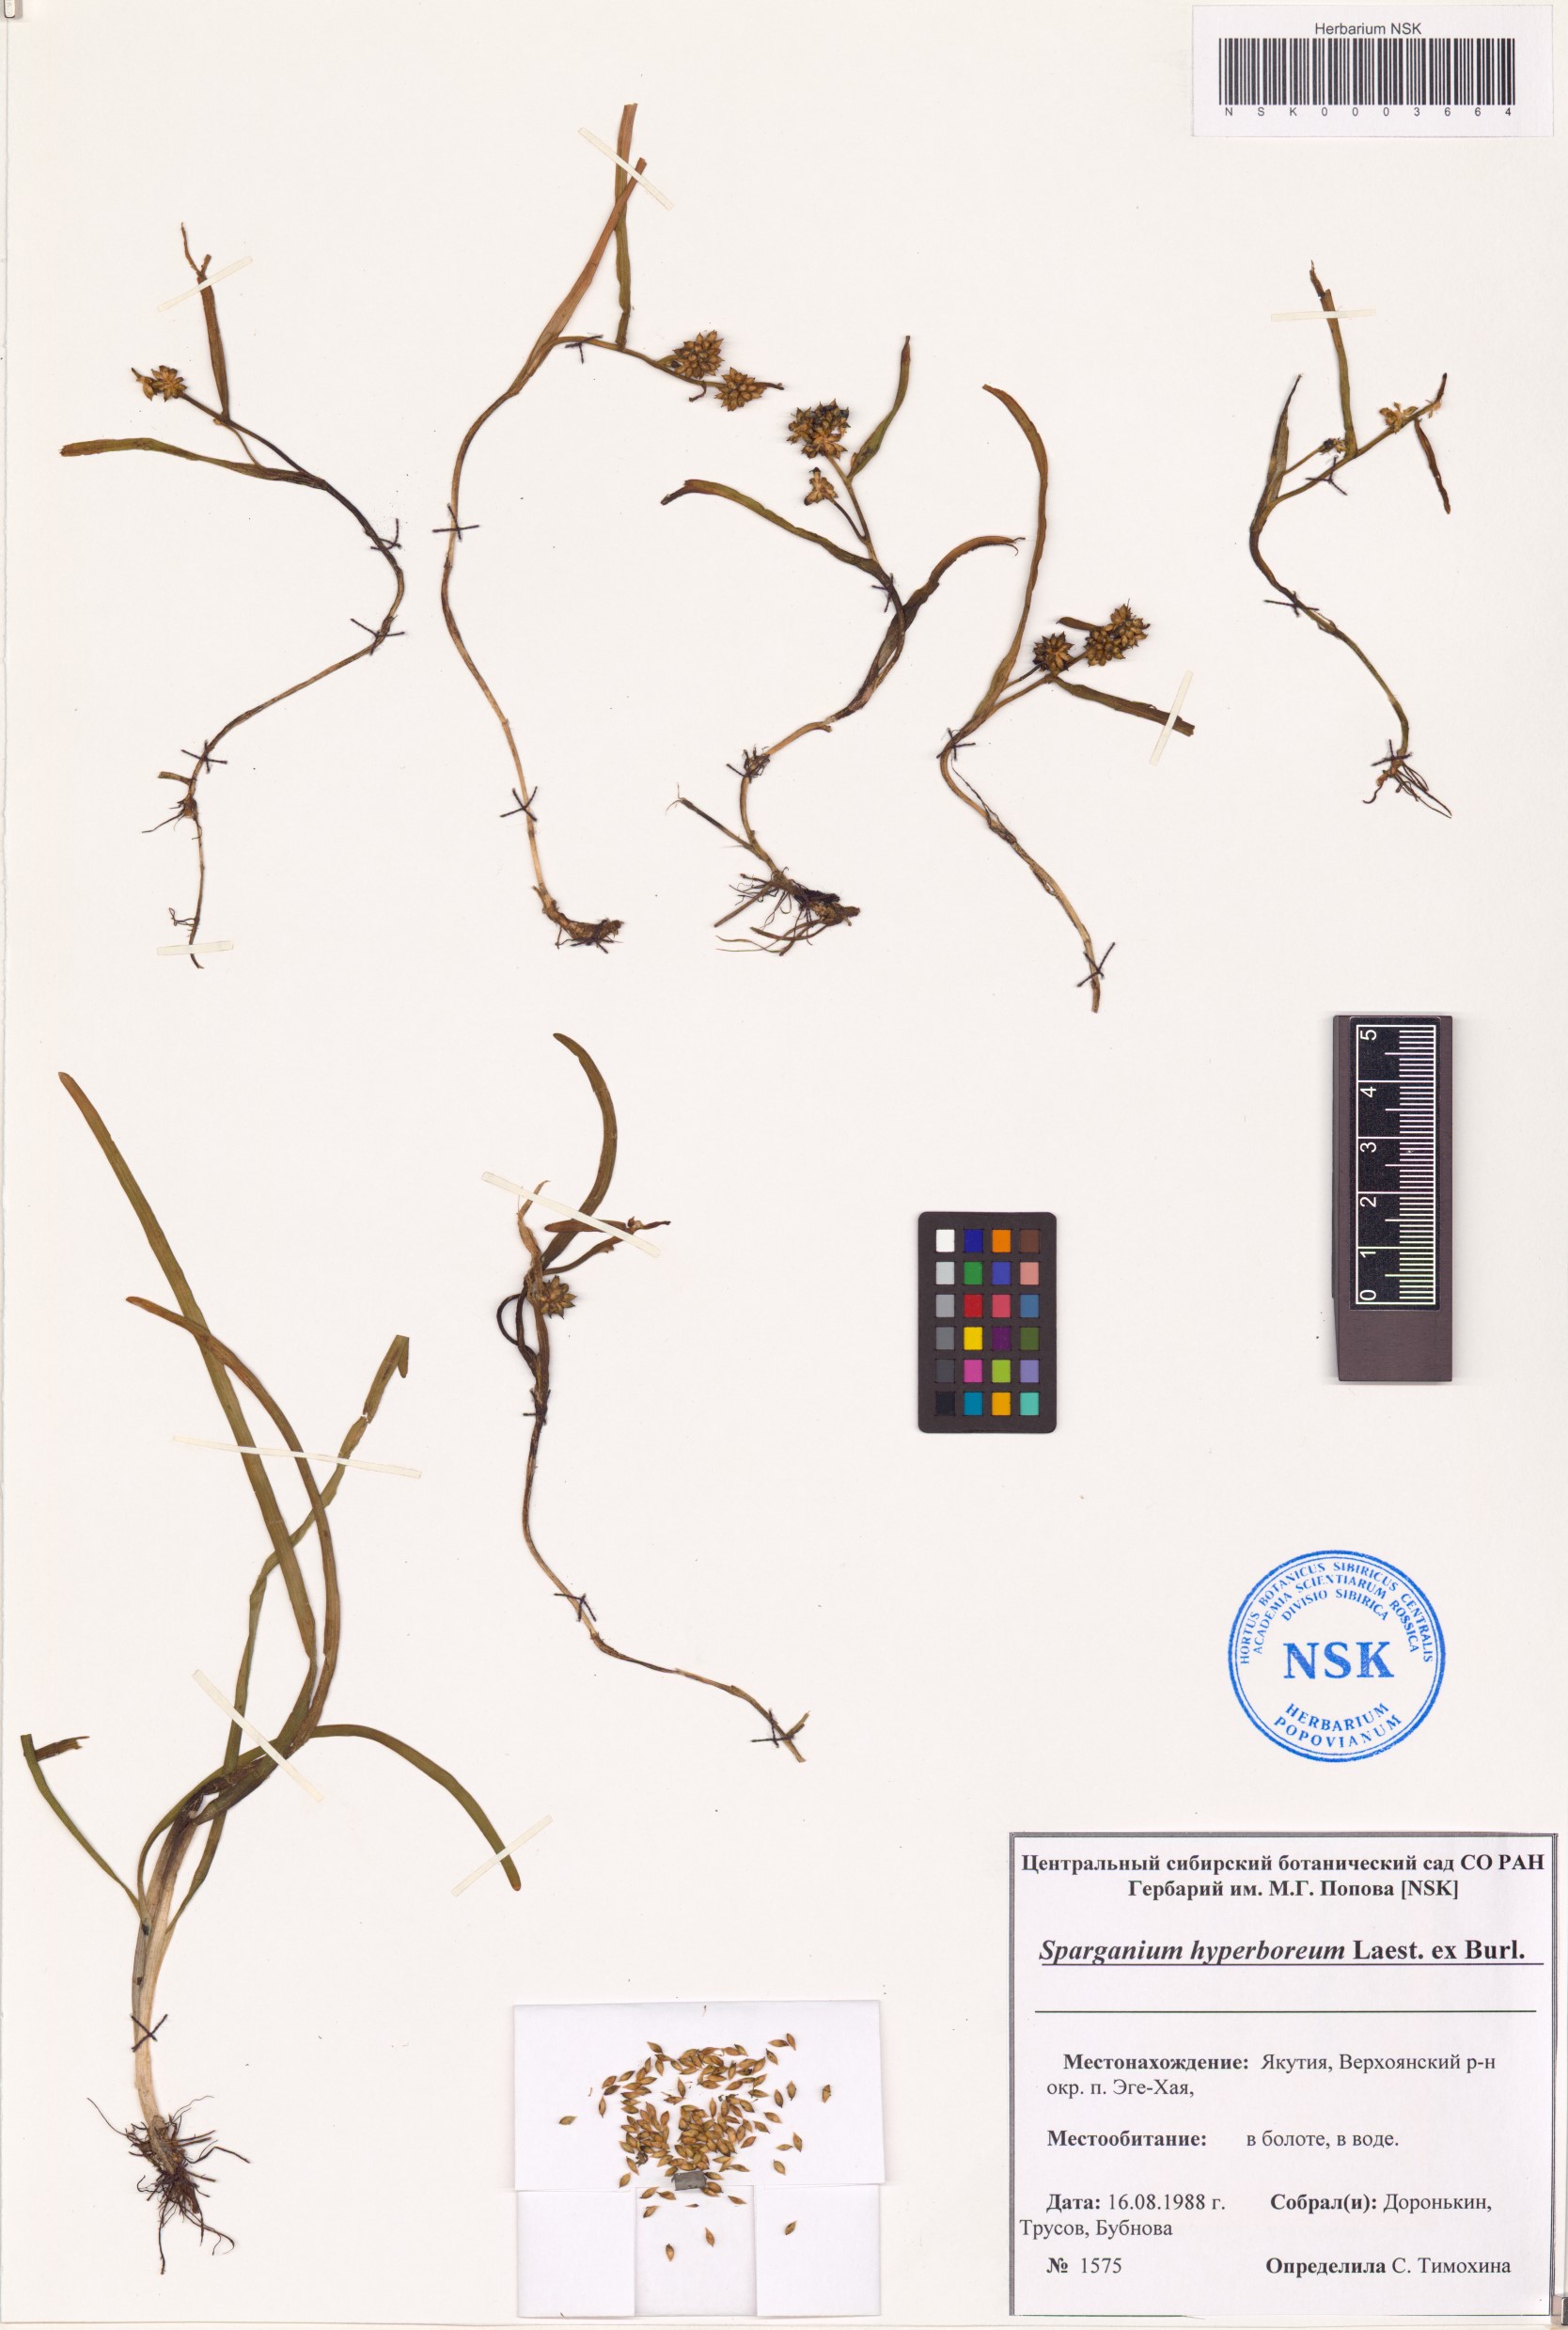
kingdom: Plantae
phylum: Tracheophyta
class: Liliopsida
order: Poales
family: Typhaceae
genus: Sparganium
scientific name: Sparganium hyperboreum
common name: Arctic burreed
